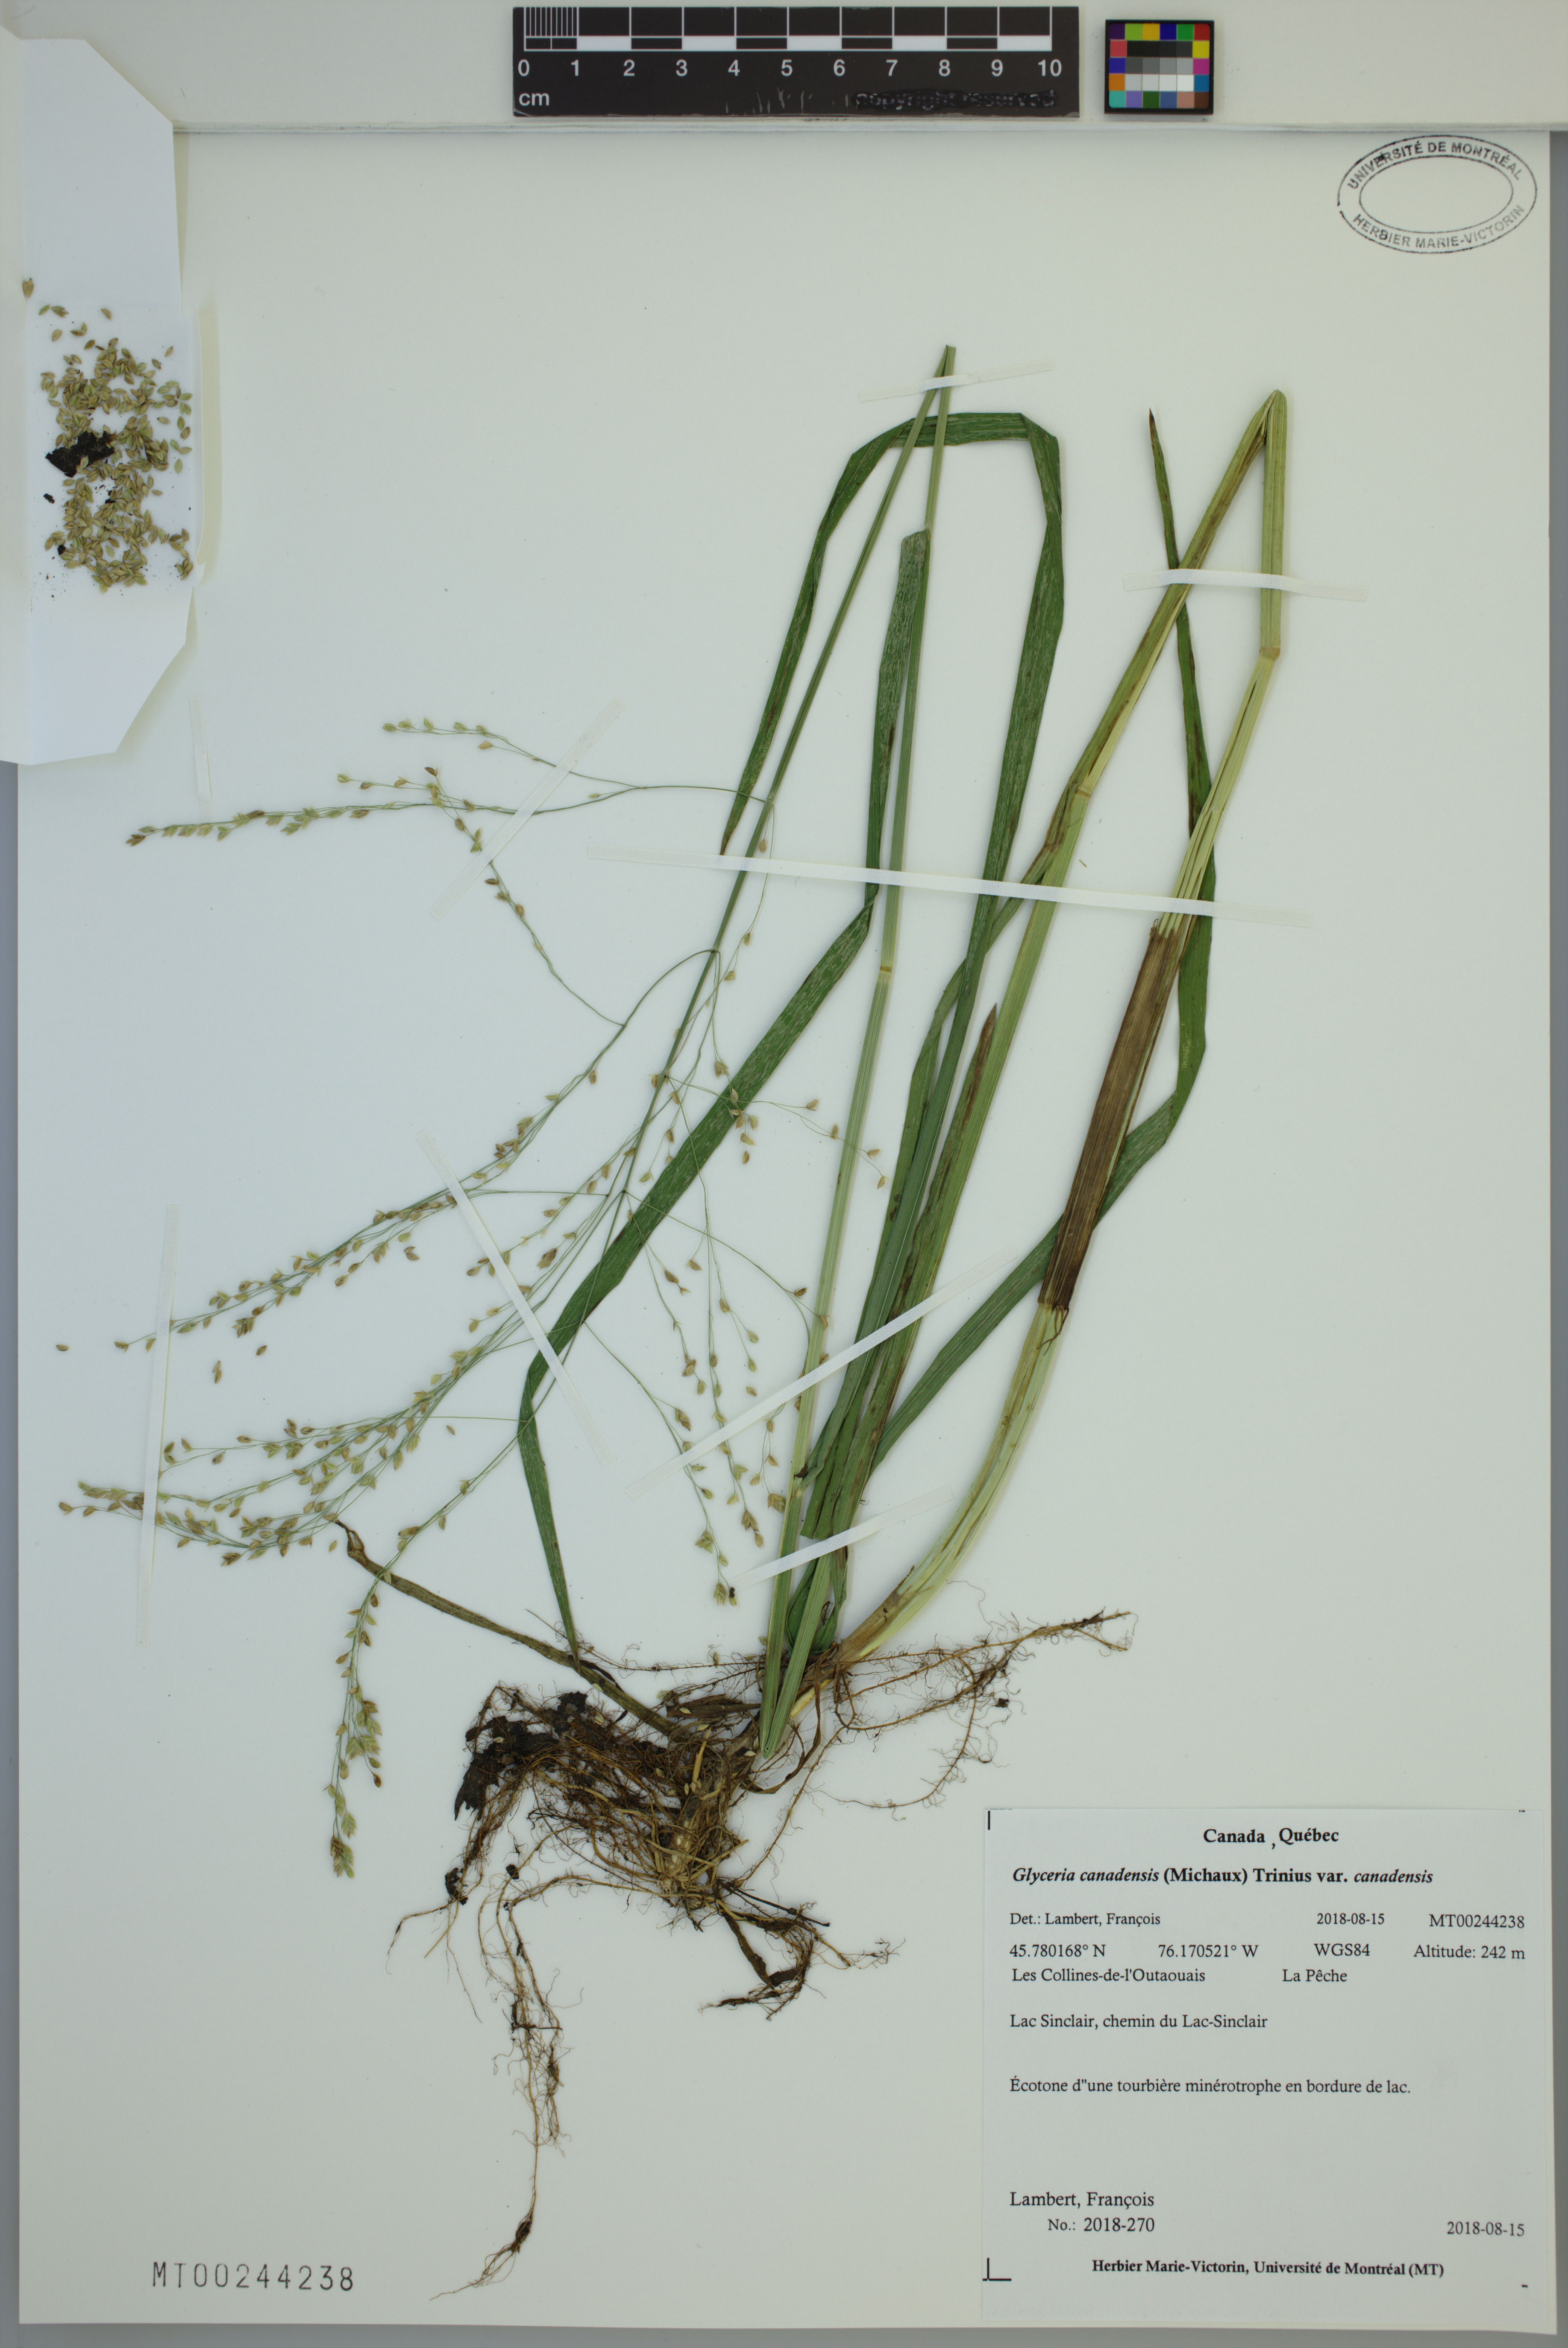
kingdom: Plantae
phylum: Tracheophyta
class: Liliopsida
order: Poales
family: Poaceae
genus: Glyceria
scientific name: Glyceria canadensis
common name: Canada mannagrass
